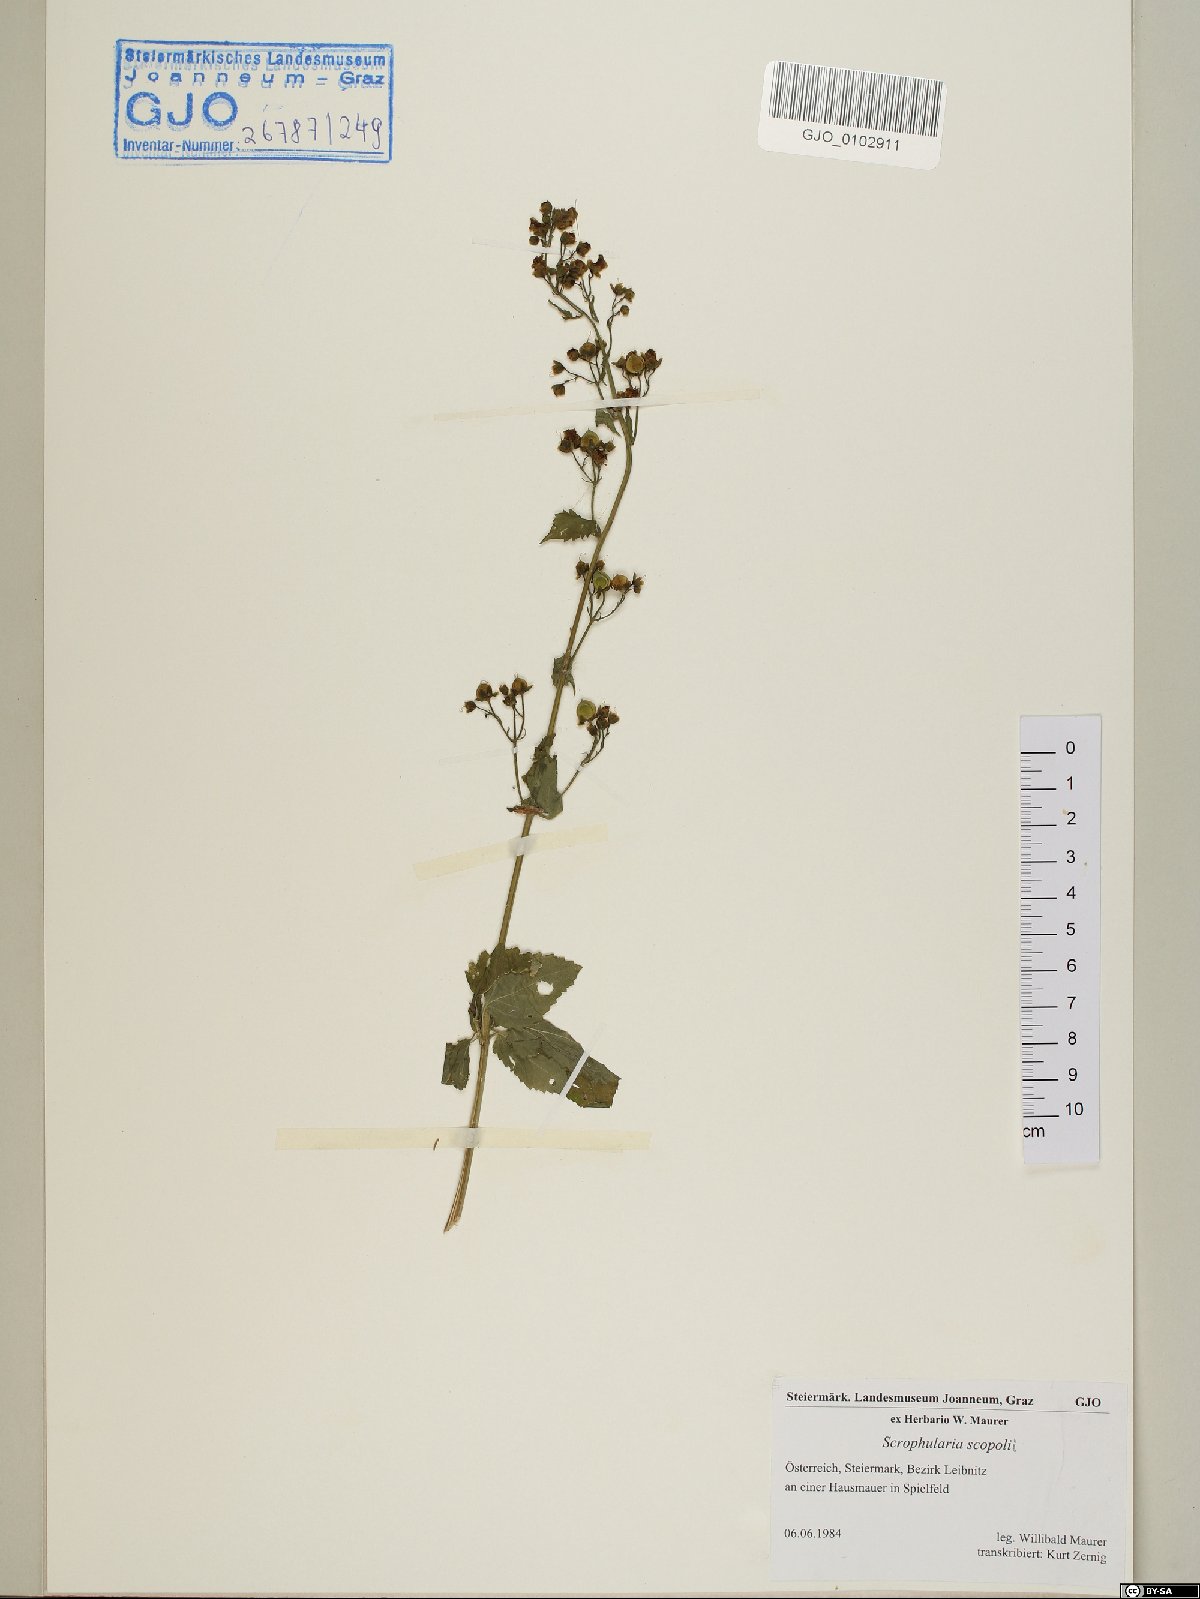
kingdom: Plantae
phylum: Tracheophyta
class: Magnoliopsida
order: Lamiales
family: Scrophulariaceae
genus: Scrophularia
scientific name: Scrophularia scopolii
